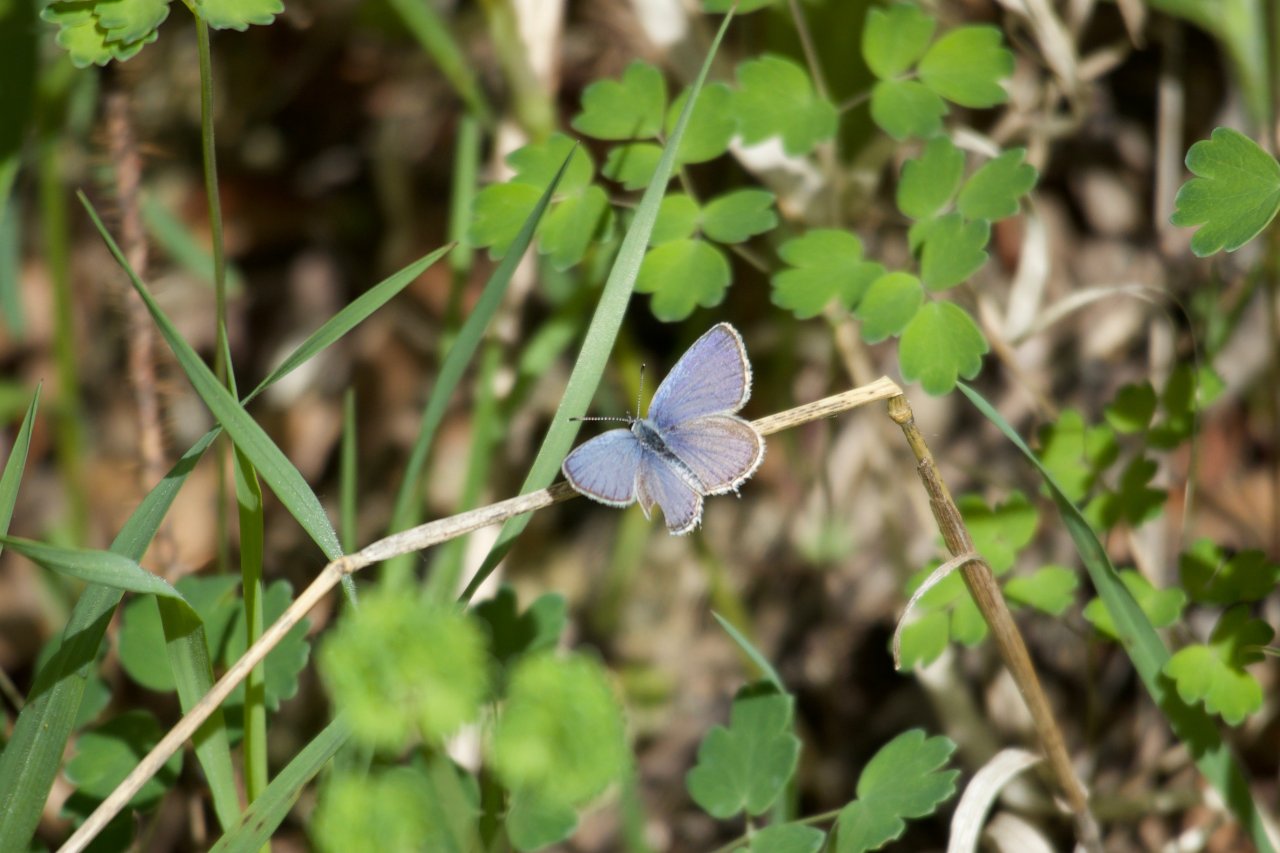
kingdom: Animalia
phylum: Arthropoda
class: Insecta
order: Lepidoptera
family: Lycaenidae
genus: Elkalyce
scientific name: Elkalyce amyntula
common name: Western Tailed-Blue
